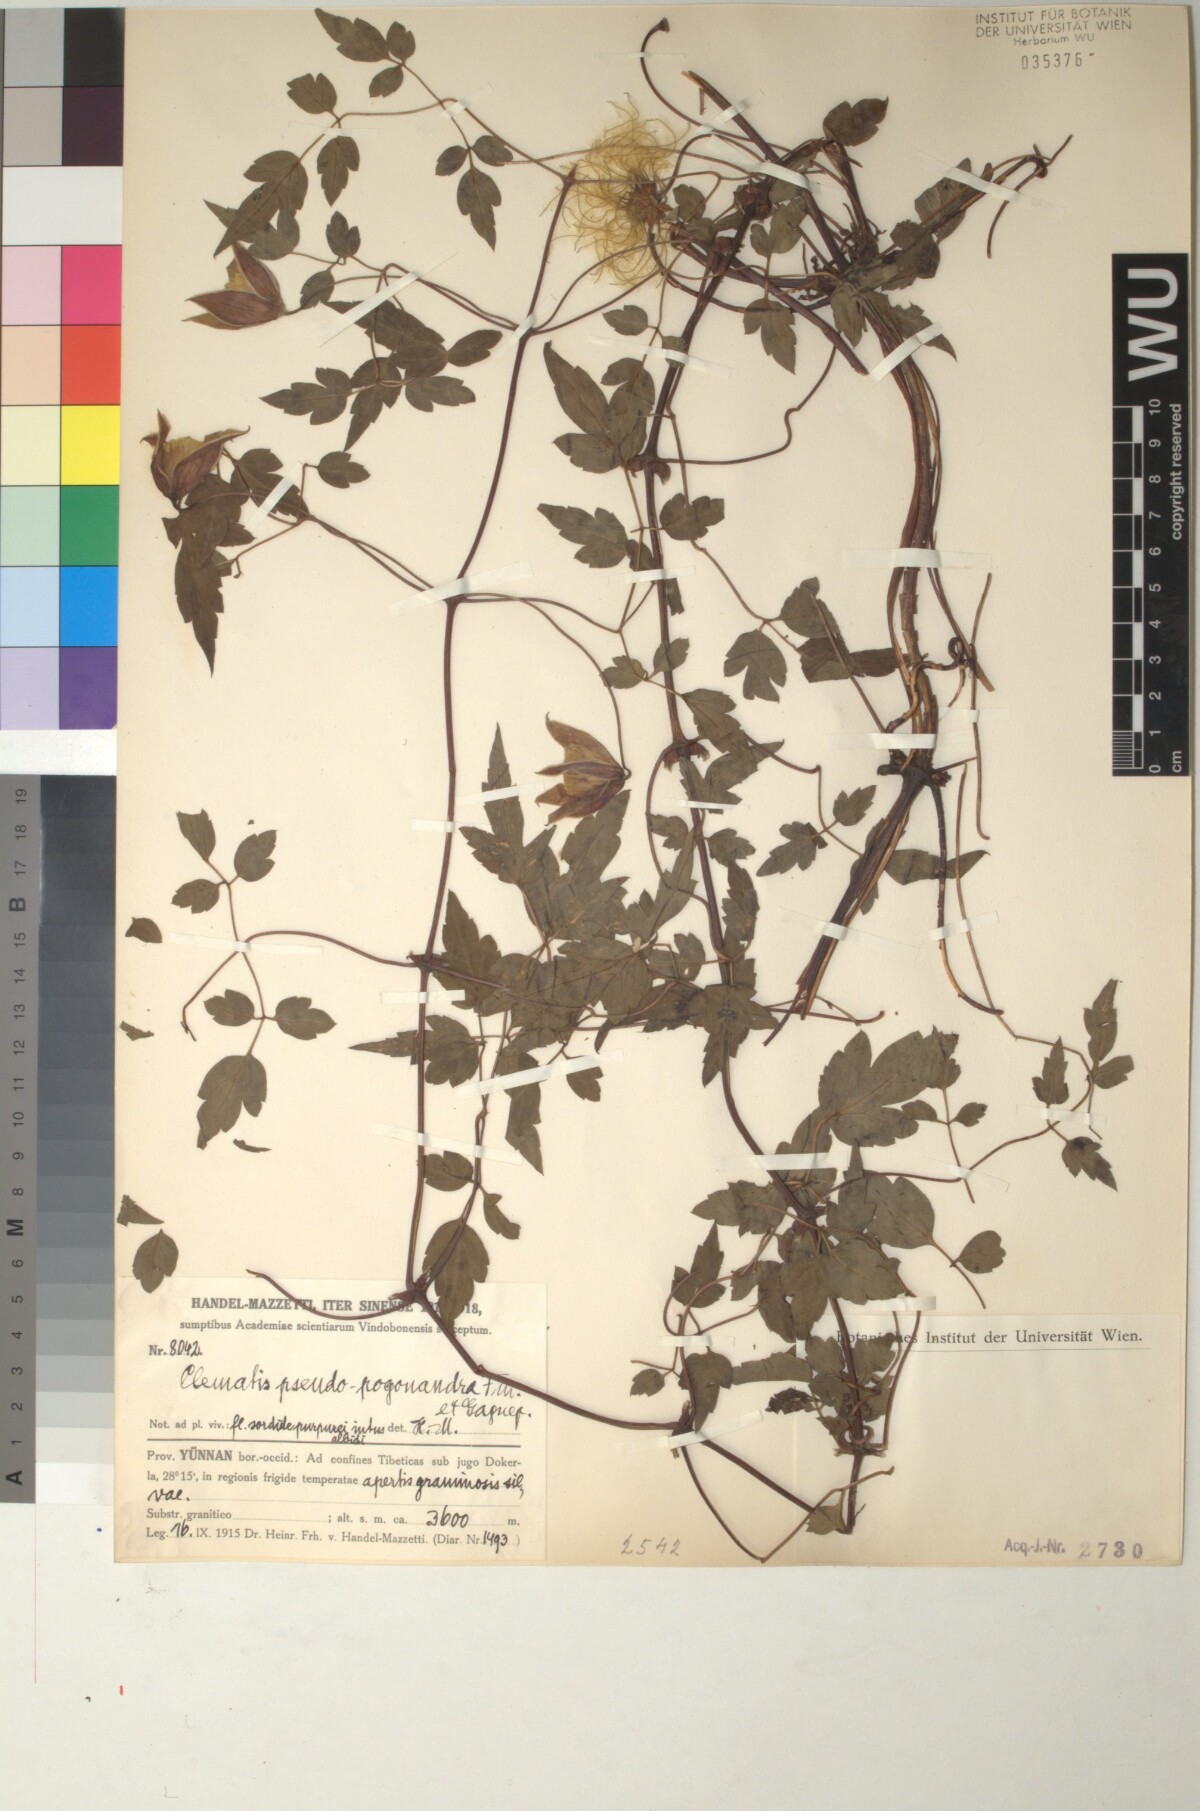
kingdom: Plantae
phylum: Tracheophyta
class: Magnoliopsida
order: Ranunculales
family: Ranunculaceae
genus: Clematis
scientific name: Clematis pseudopogonandra
